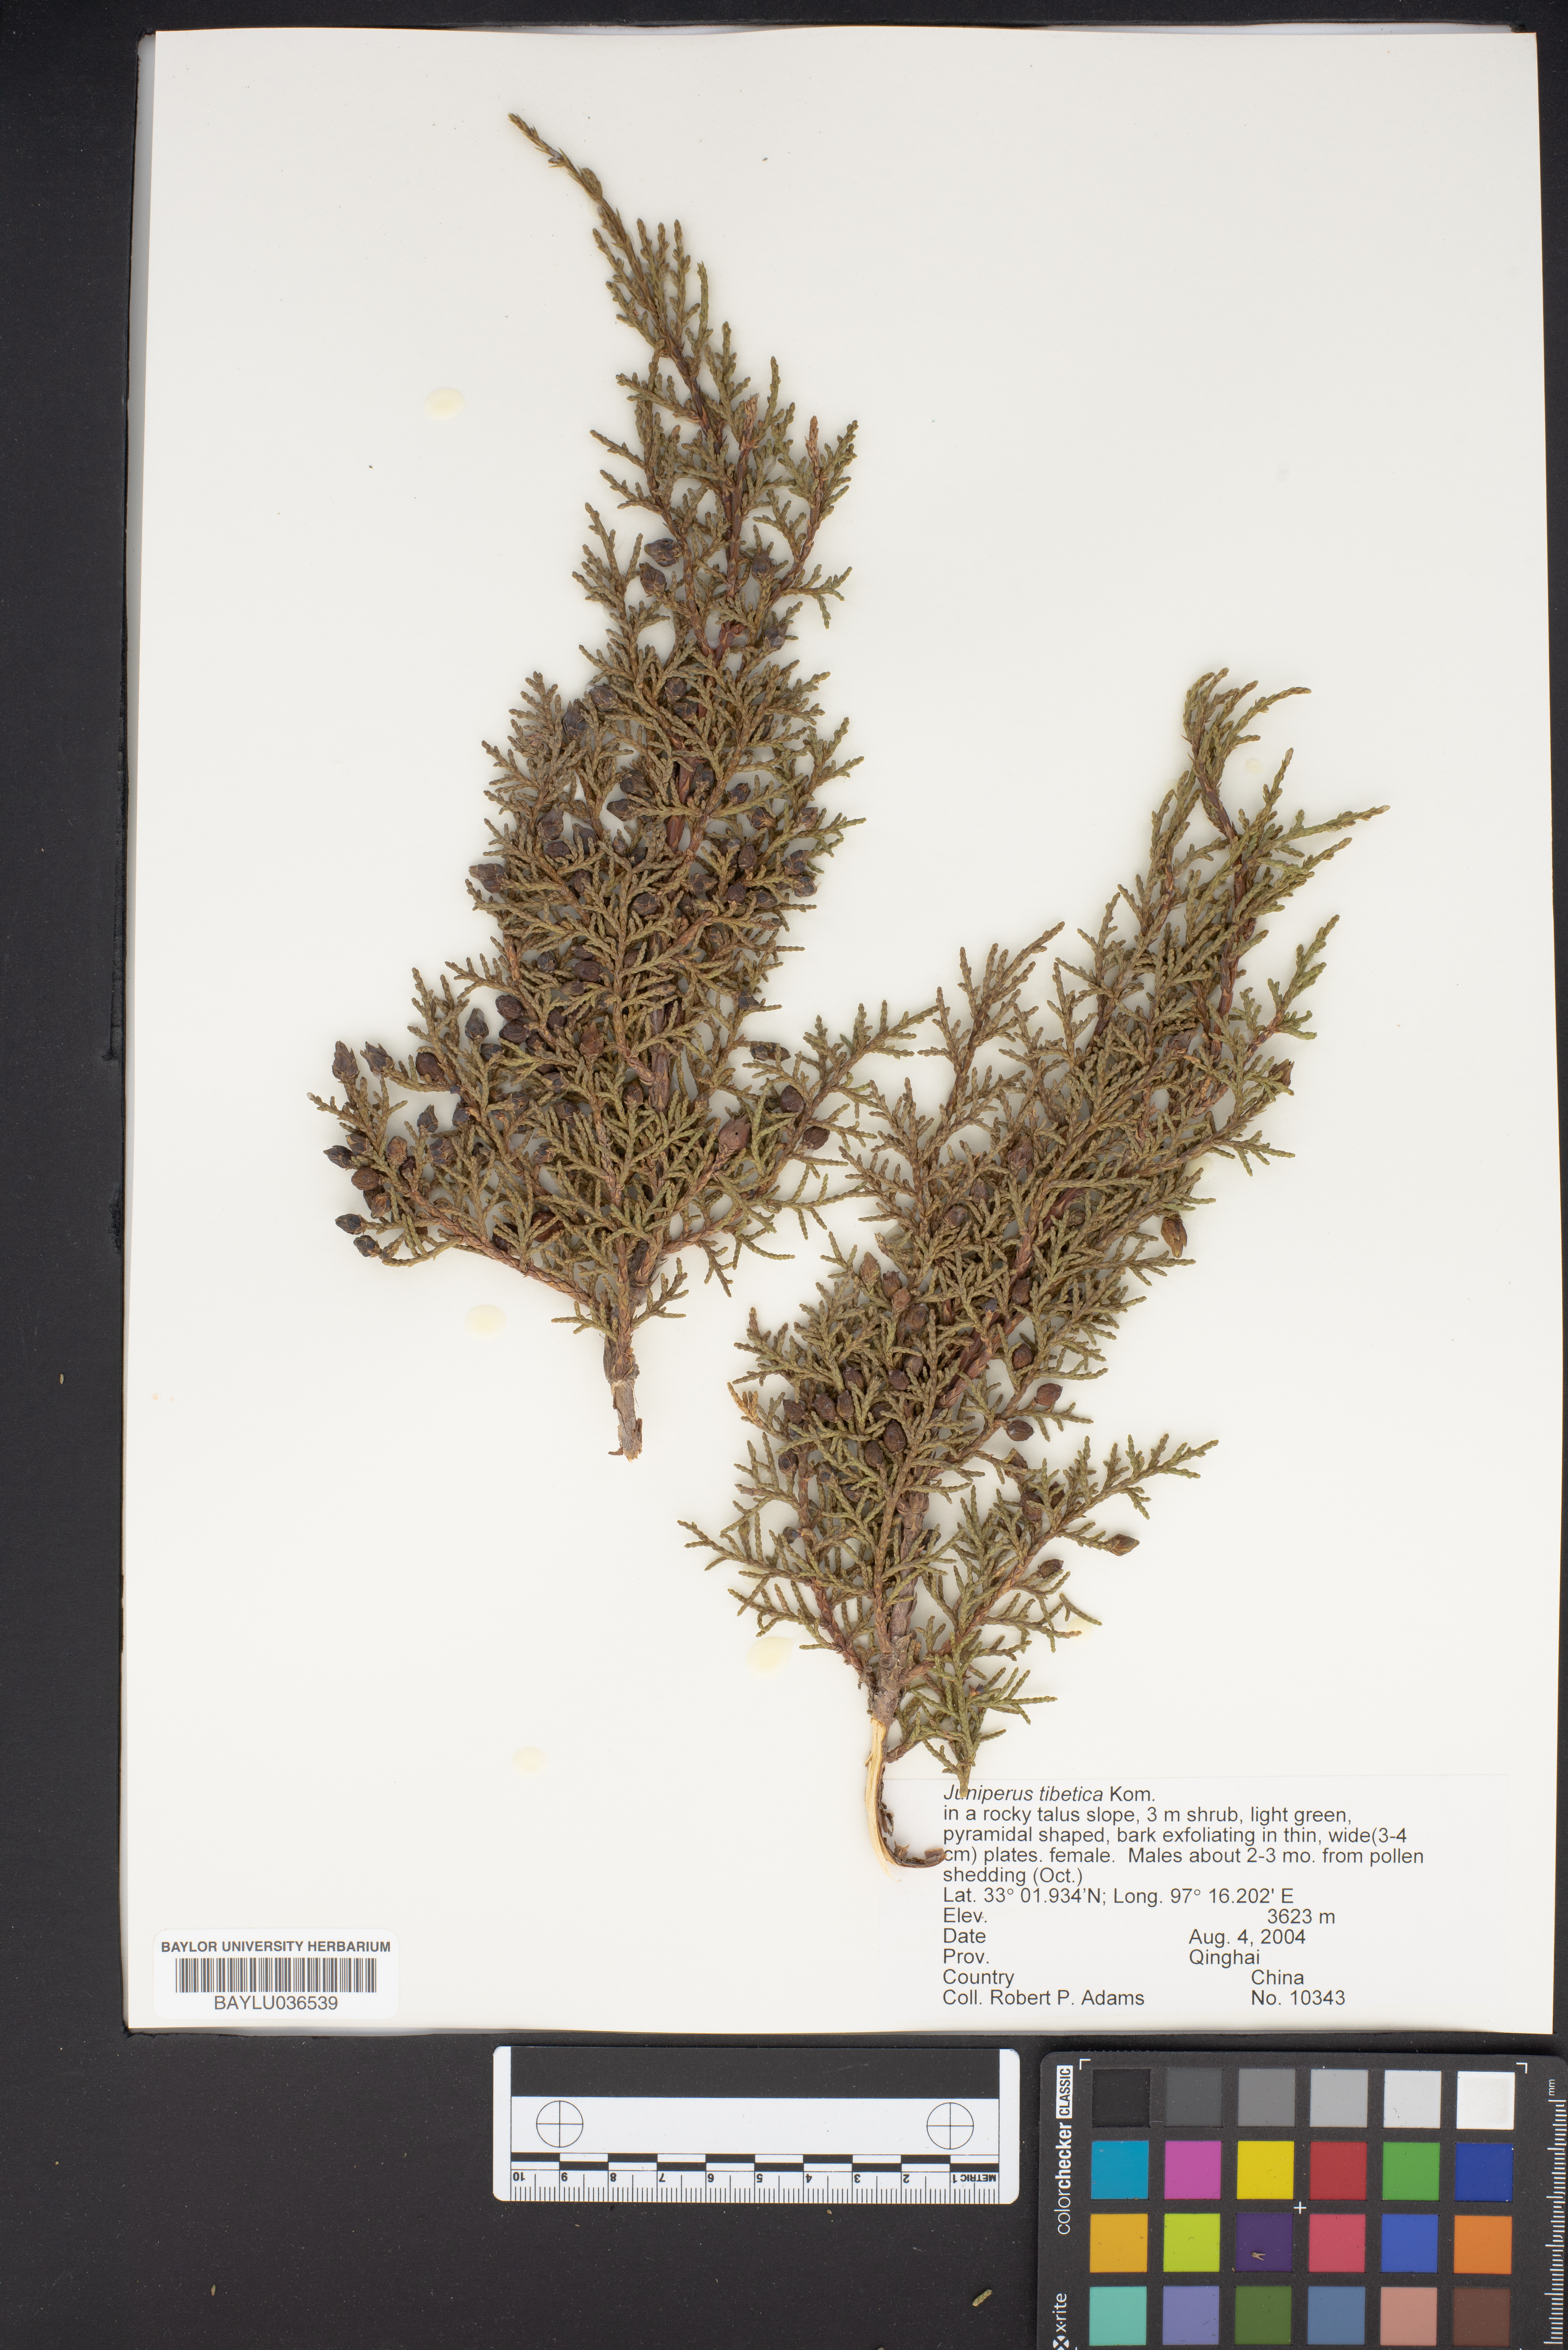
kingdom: Plantae
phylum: Tracheophyta
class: Pinopsida
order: Pinales
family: Cupressaceae
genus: Juniperus
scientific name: Juniperus tibetica
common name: Tibetan juniper
